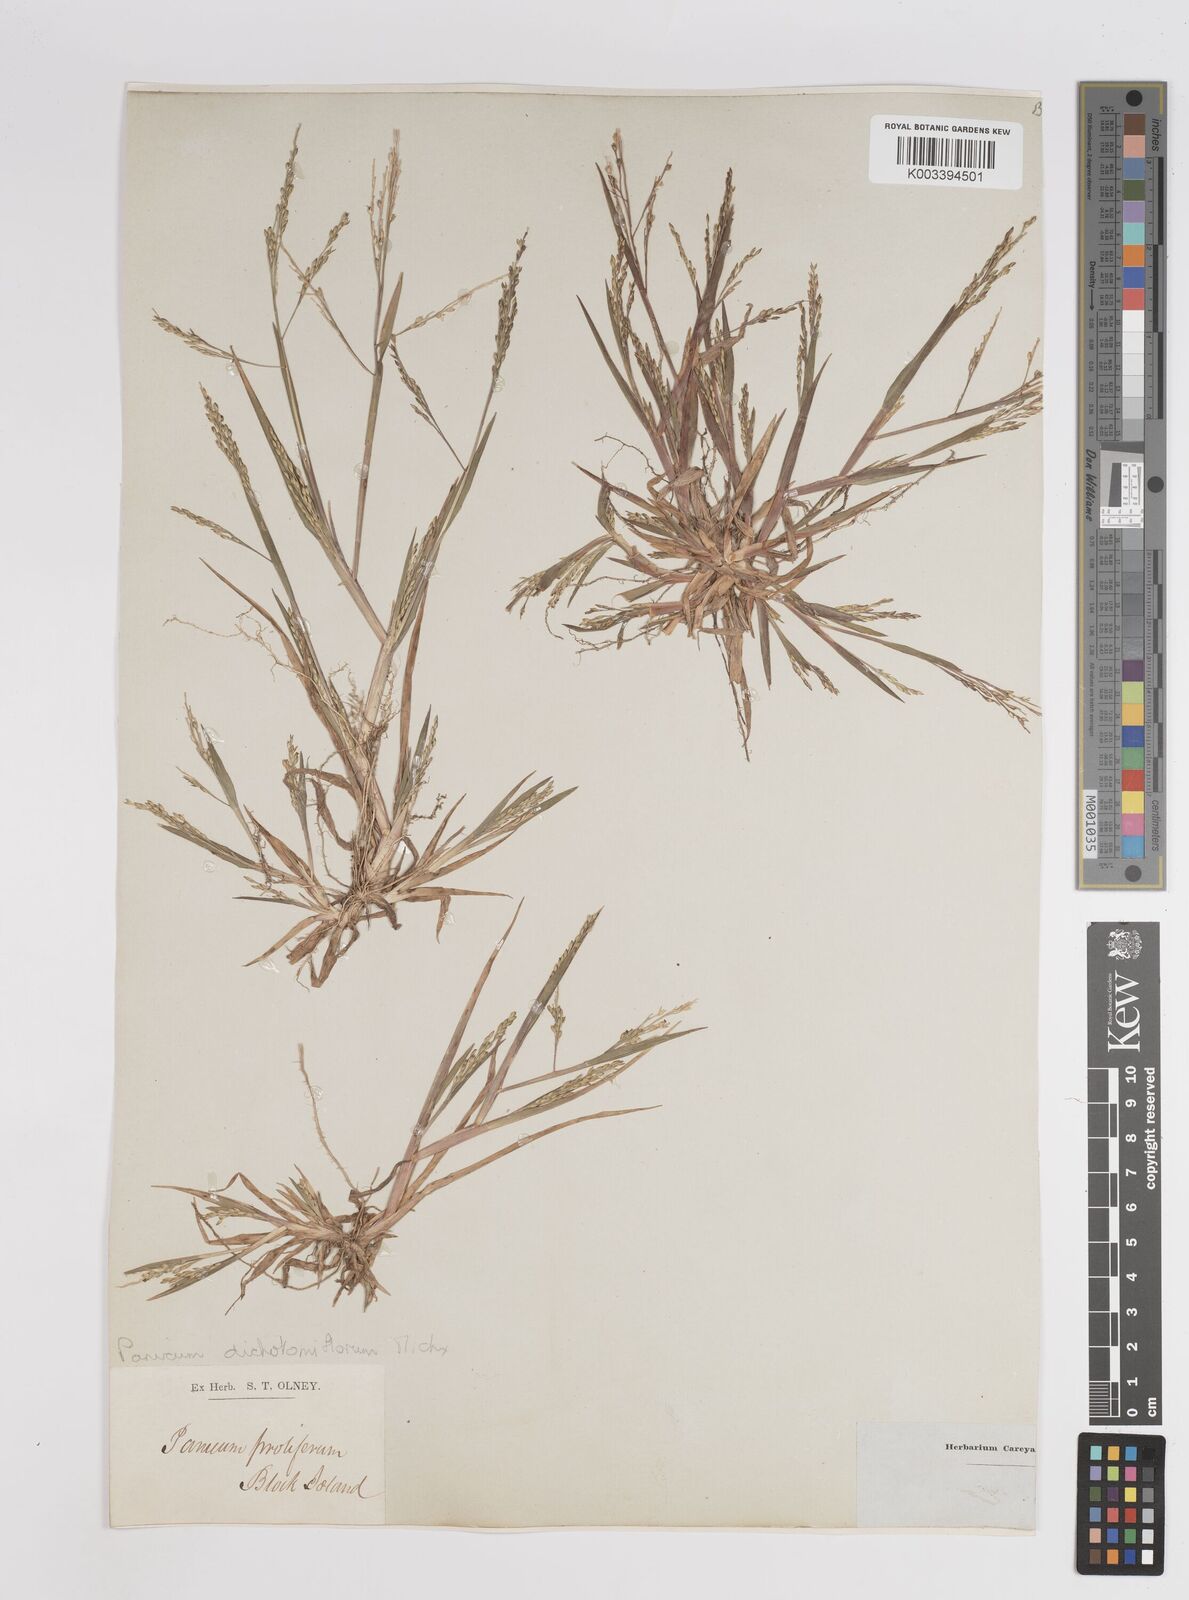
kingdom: Plantae
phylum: Tracheophyta
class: Liliopsida
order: Poales
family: Poaceae
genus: Panicum
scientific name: Panicum dichotomiflorum
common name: Autumn millet
